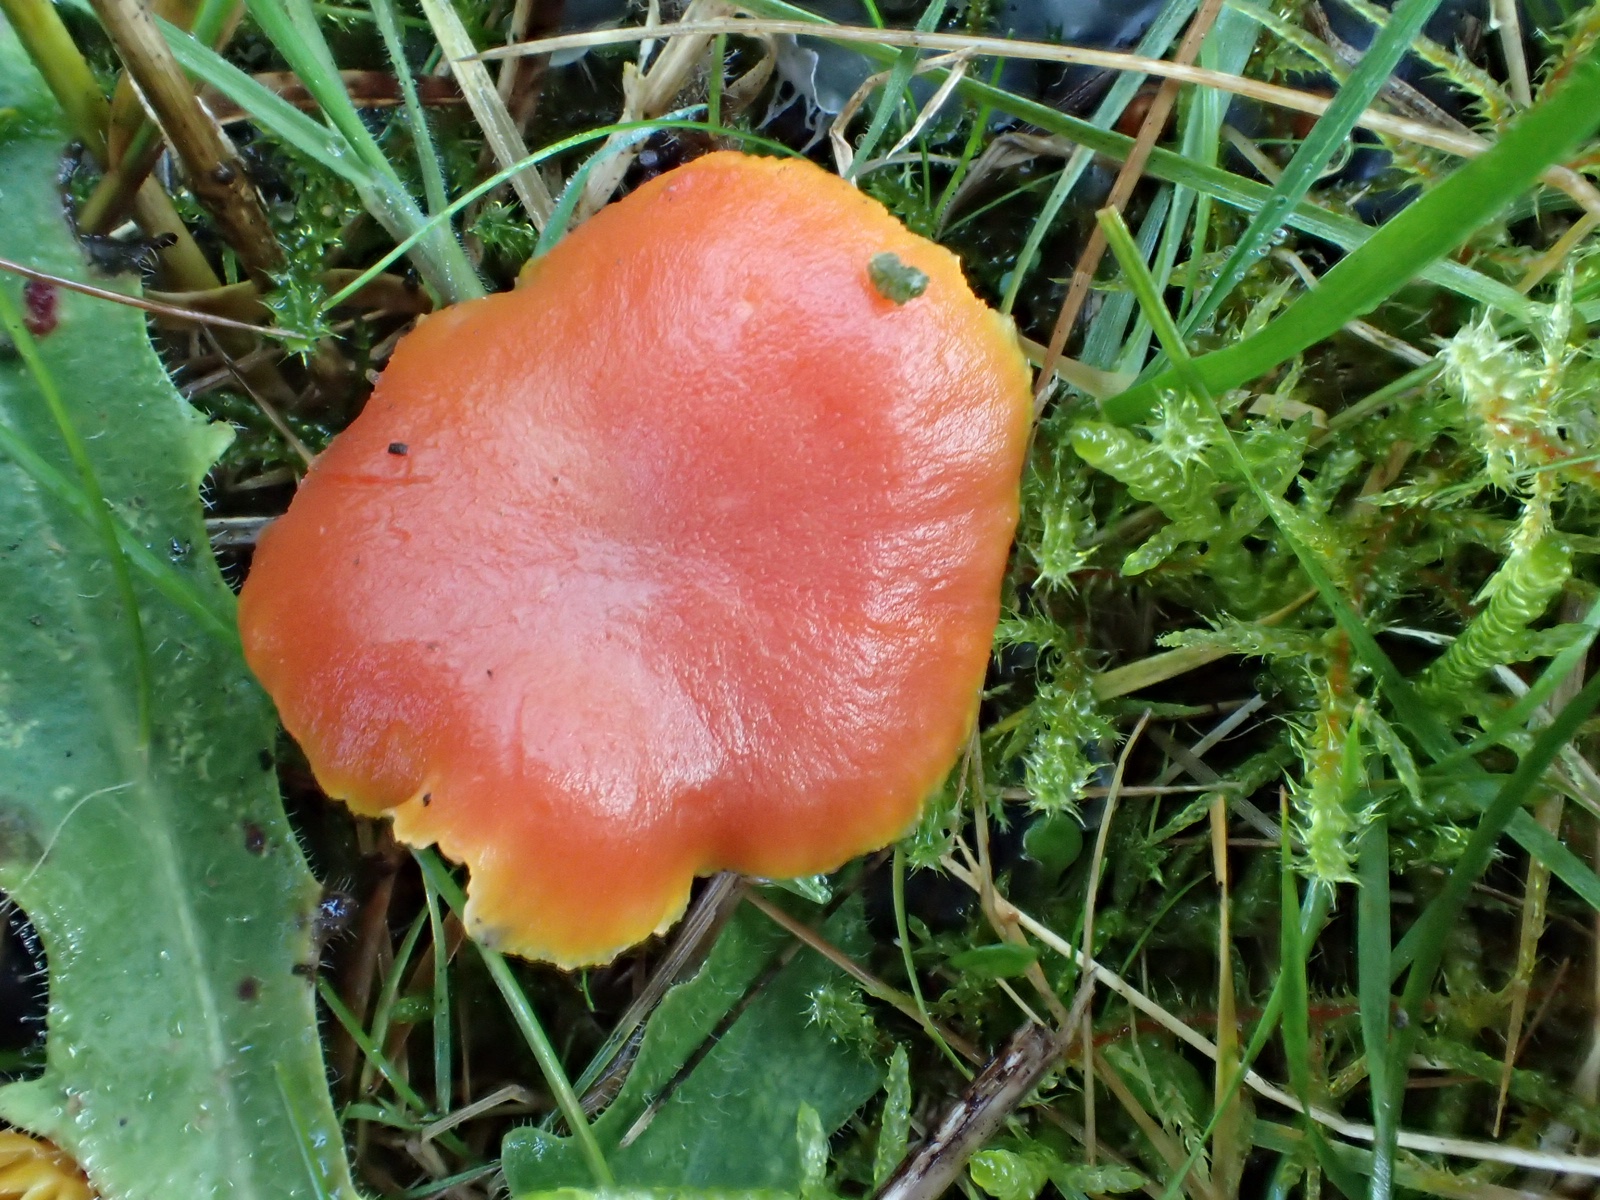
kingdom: Fungi
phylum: Basidiomycota
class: Agaricomycetes
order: Agaricales
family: Hygrophoraceae
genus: Hygrocybe
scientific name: Hygrocybe miniata
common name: mønje-vokshat
